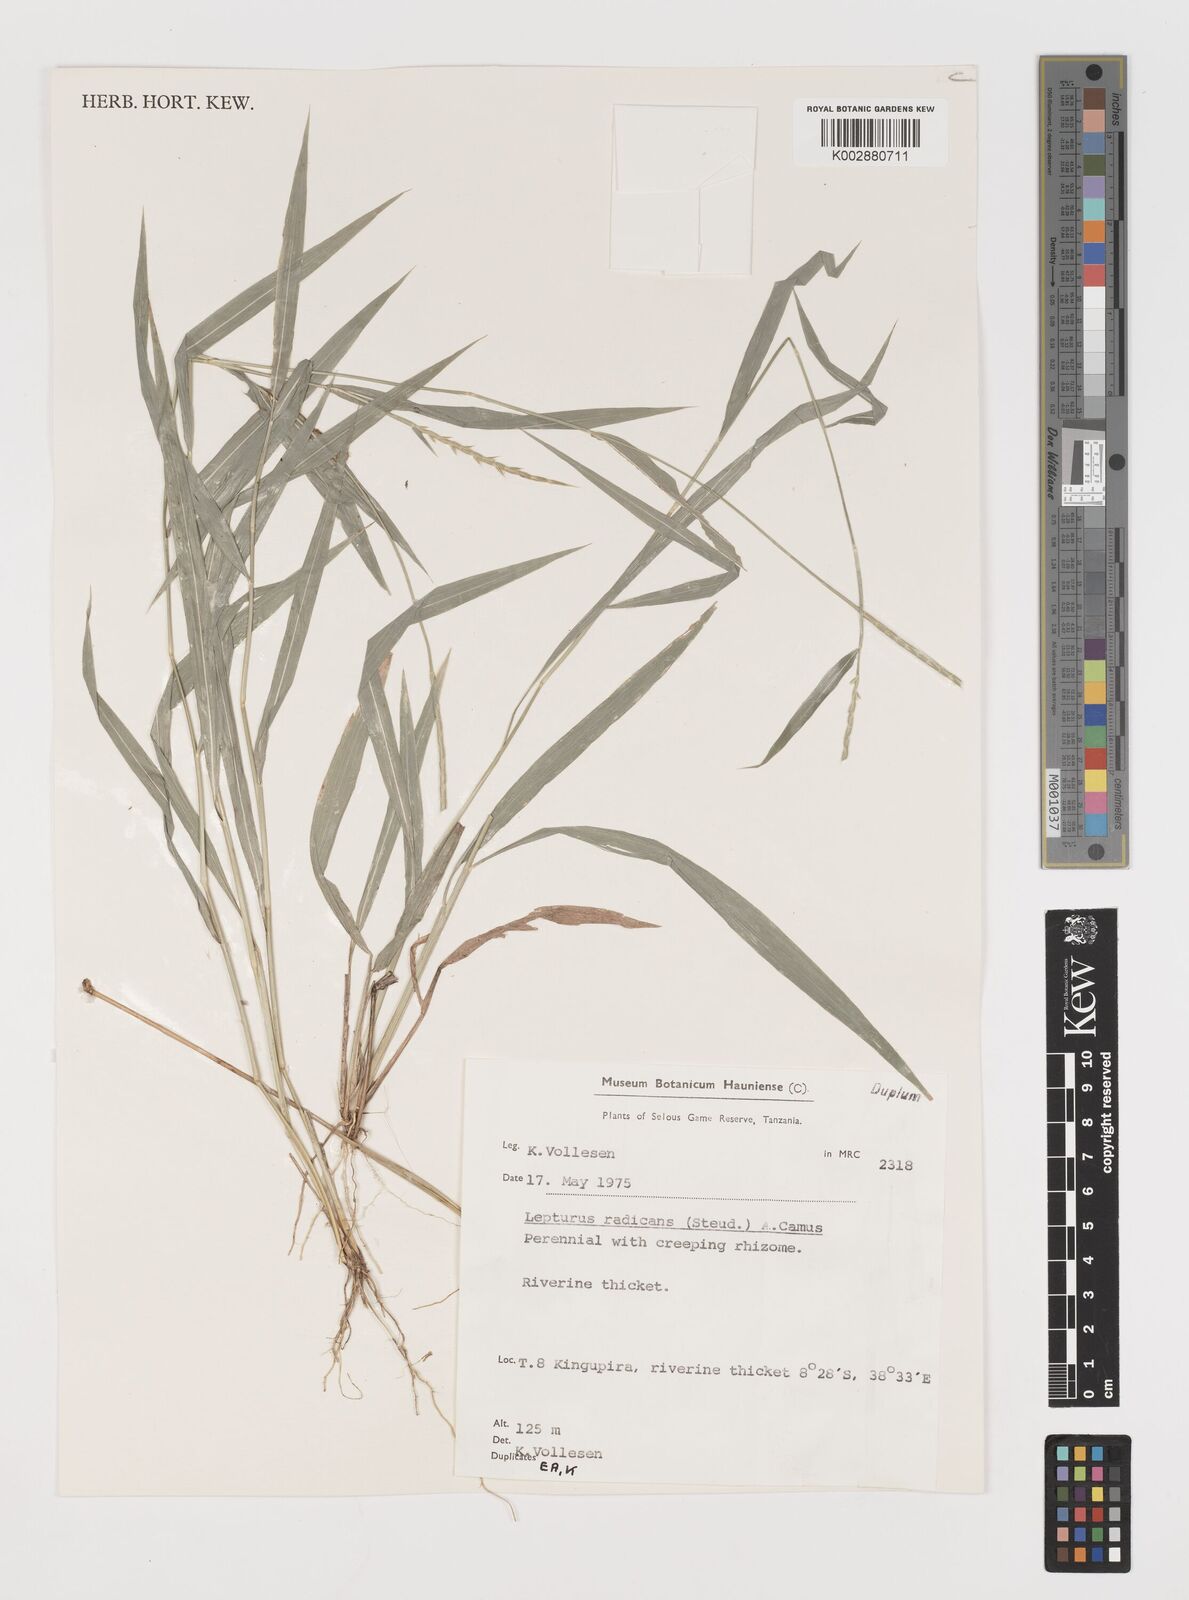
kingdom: Plantae
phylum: Tracheophyta
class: Liliopsida
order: Poales
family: Poaceae
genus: Lepturus
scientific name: Lepturus radicans
